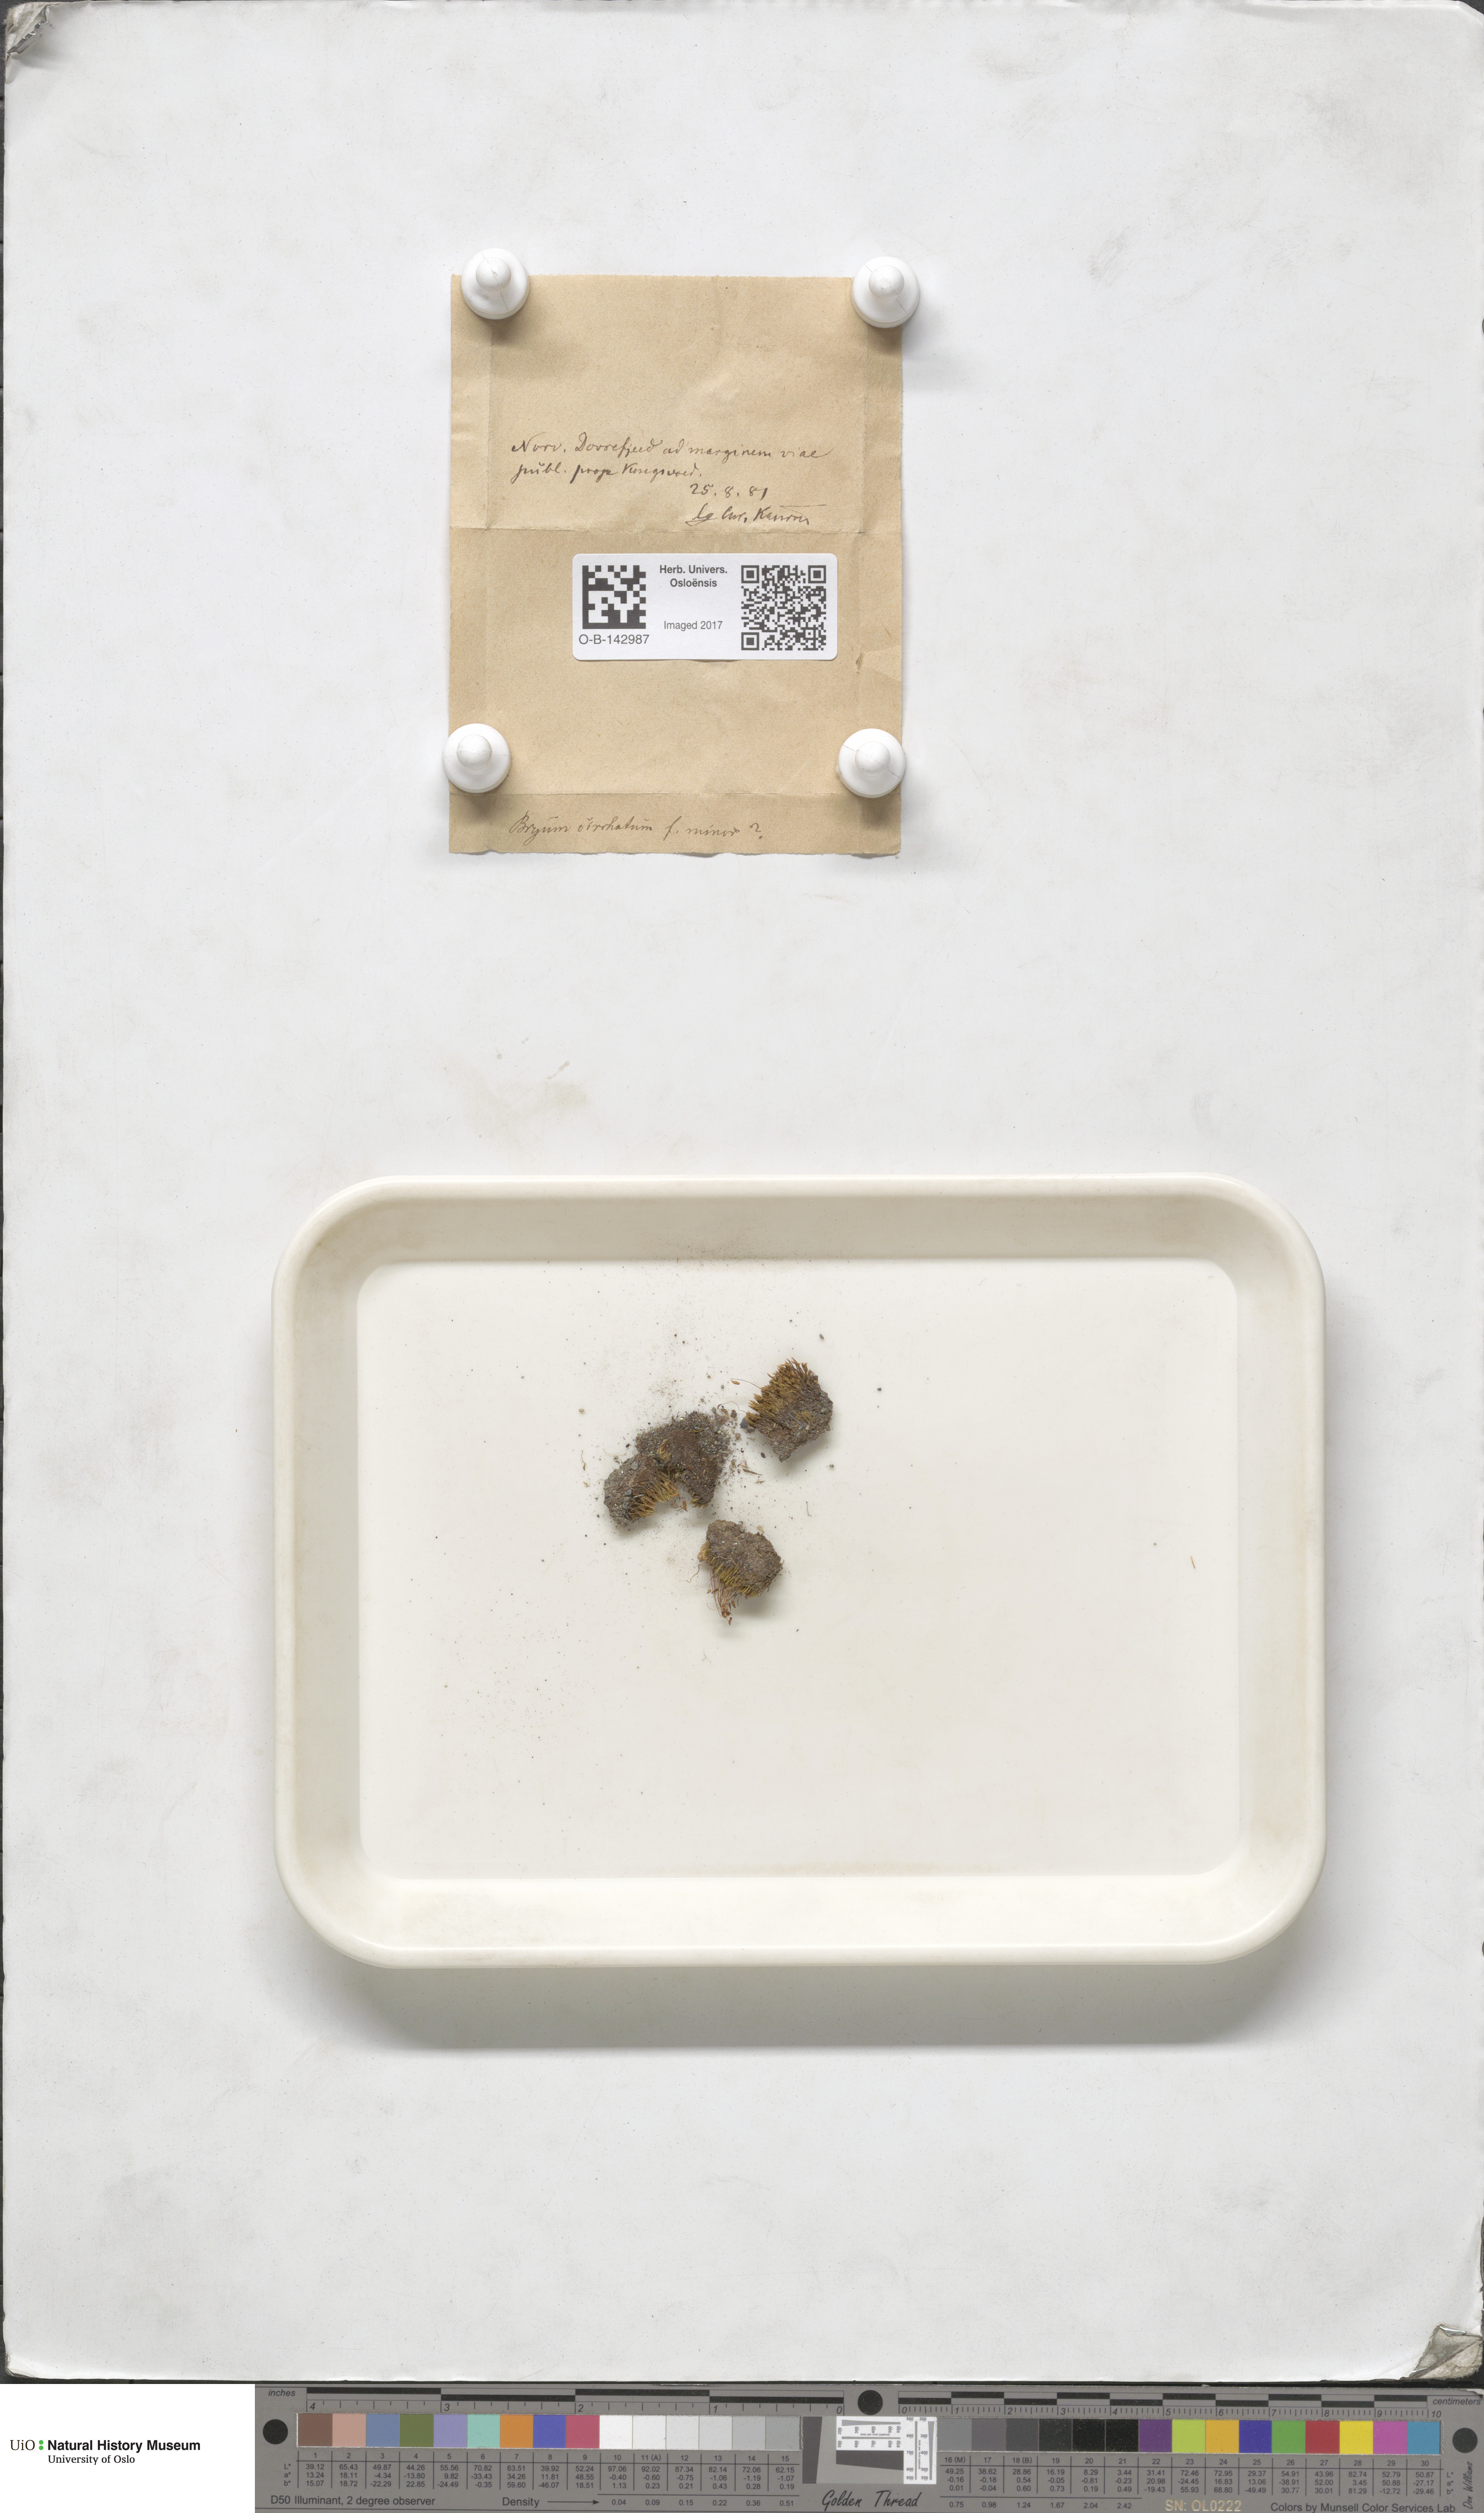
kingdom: Plantae
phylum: Bryophyta
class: Bryopsida
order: Bryales
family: Bryaceae
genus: Bryum
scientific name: Bryum
